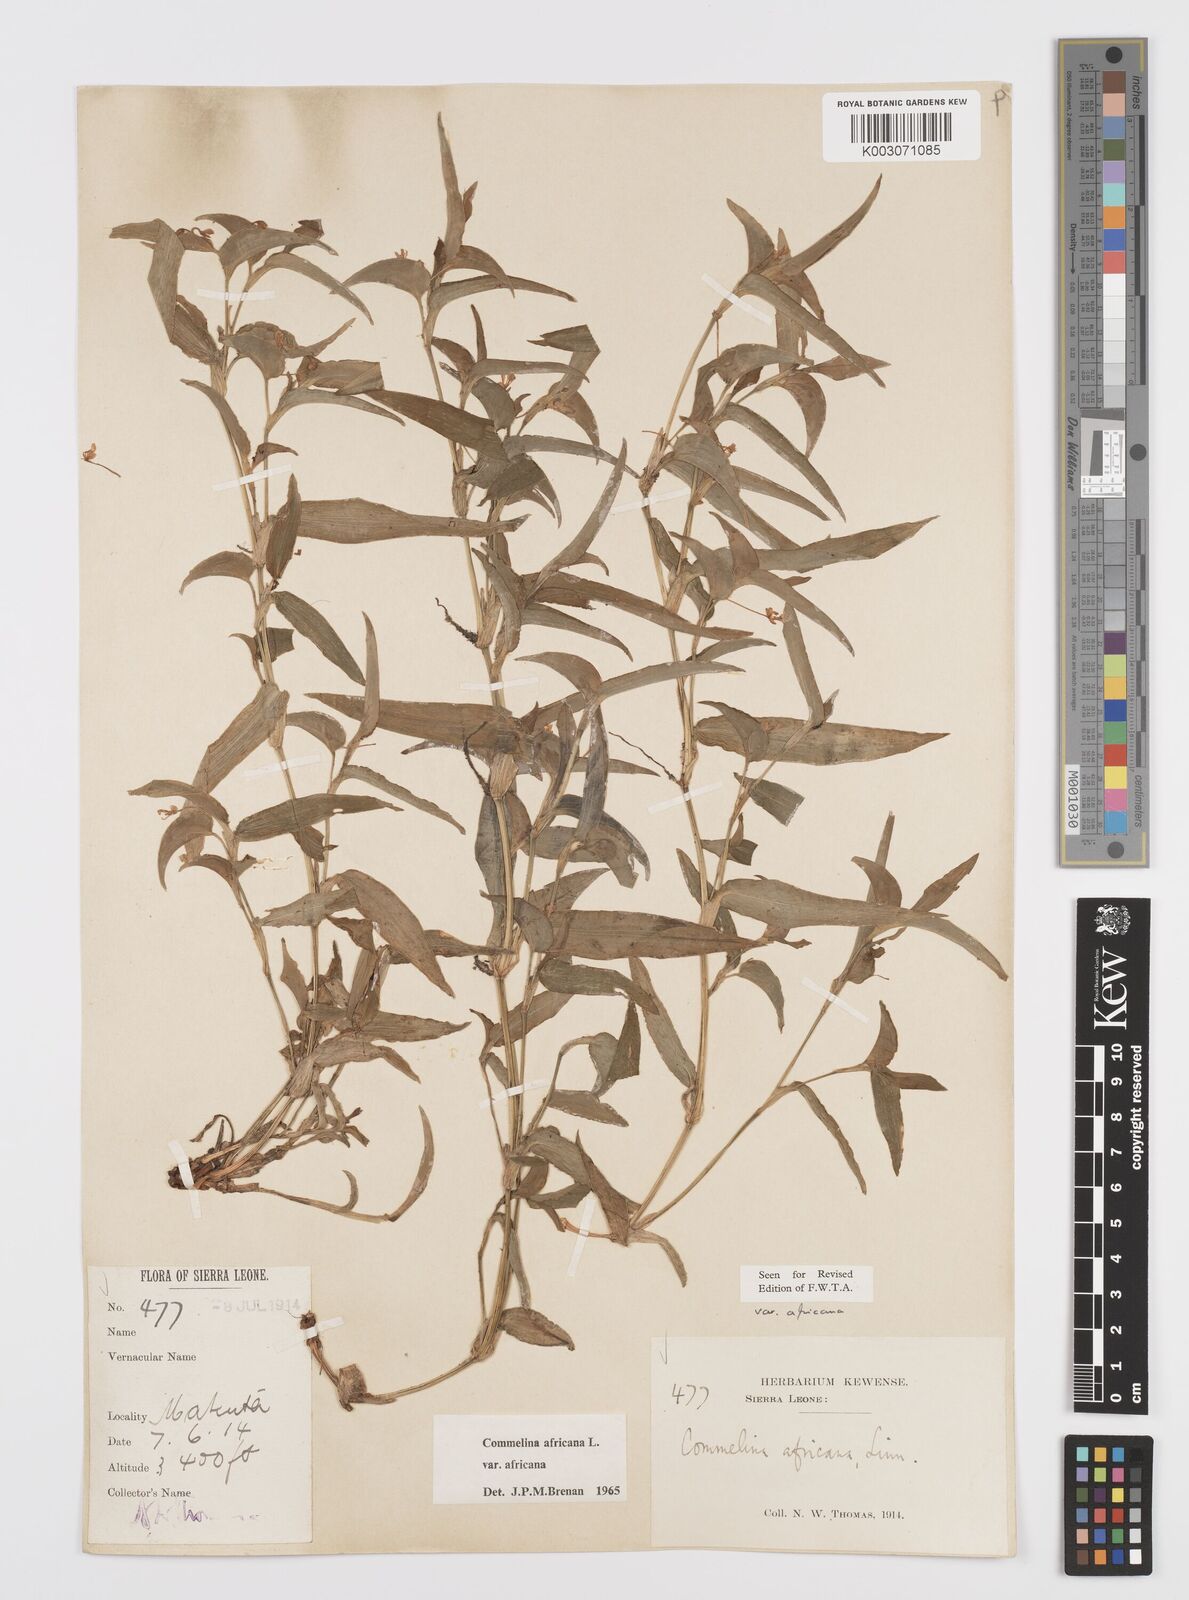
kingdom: Plantae
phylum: Tracheophyta
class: Liliopsida
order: Commelinales
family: Commelinaceae
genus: Commelina
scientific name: Commelina africana
